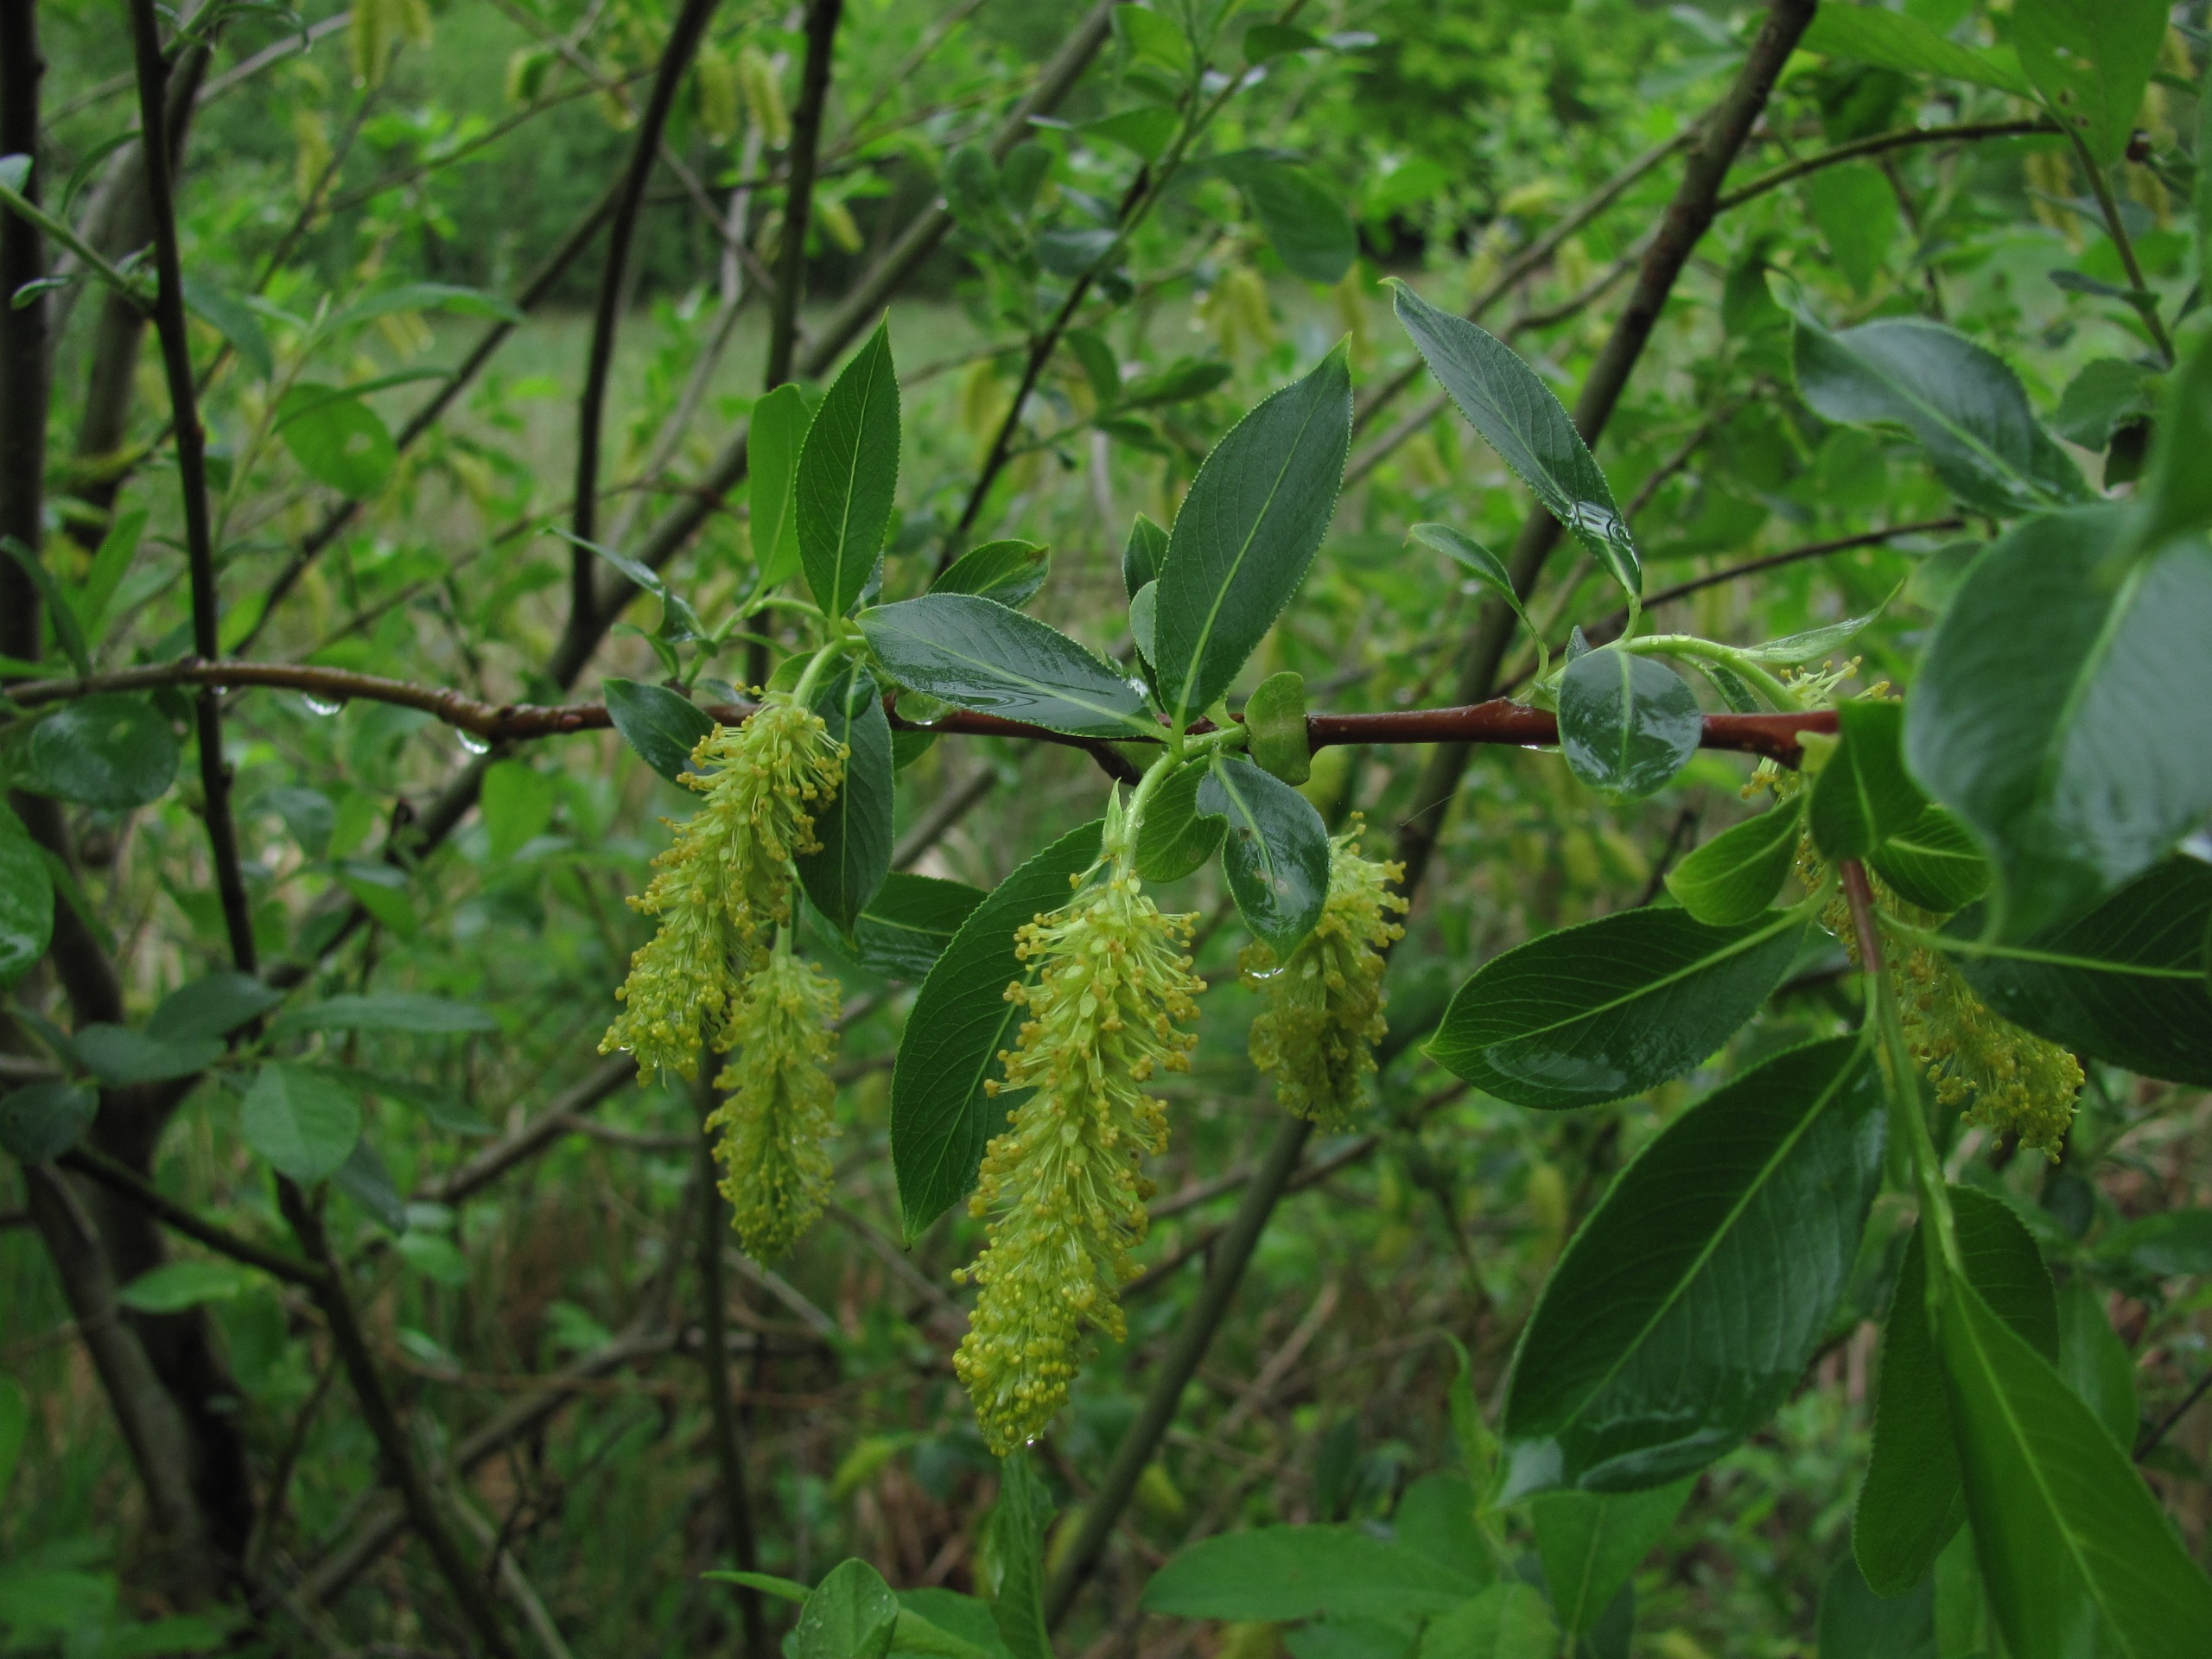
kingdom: Plantae
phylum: Tracheophyta
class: Magnoliopsida
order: Malpighiales
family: Salicaceae
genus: Salix
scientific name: Salix pentandra
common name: Femhannet pil
